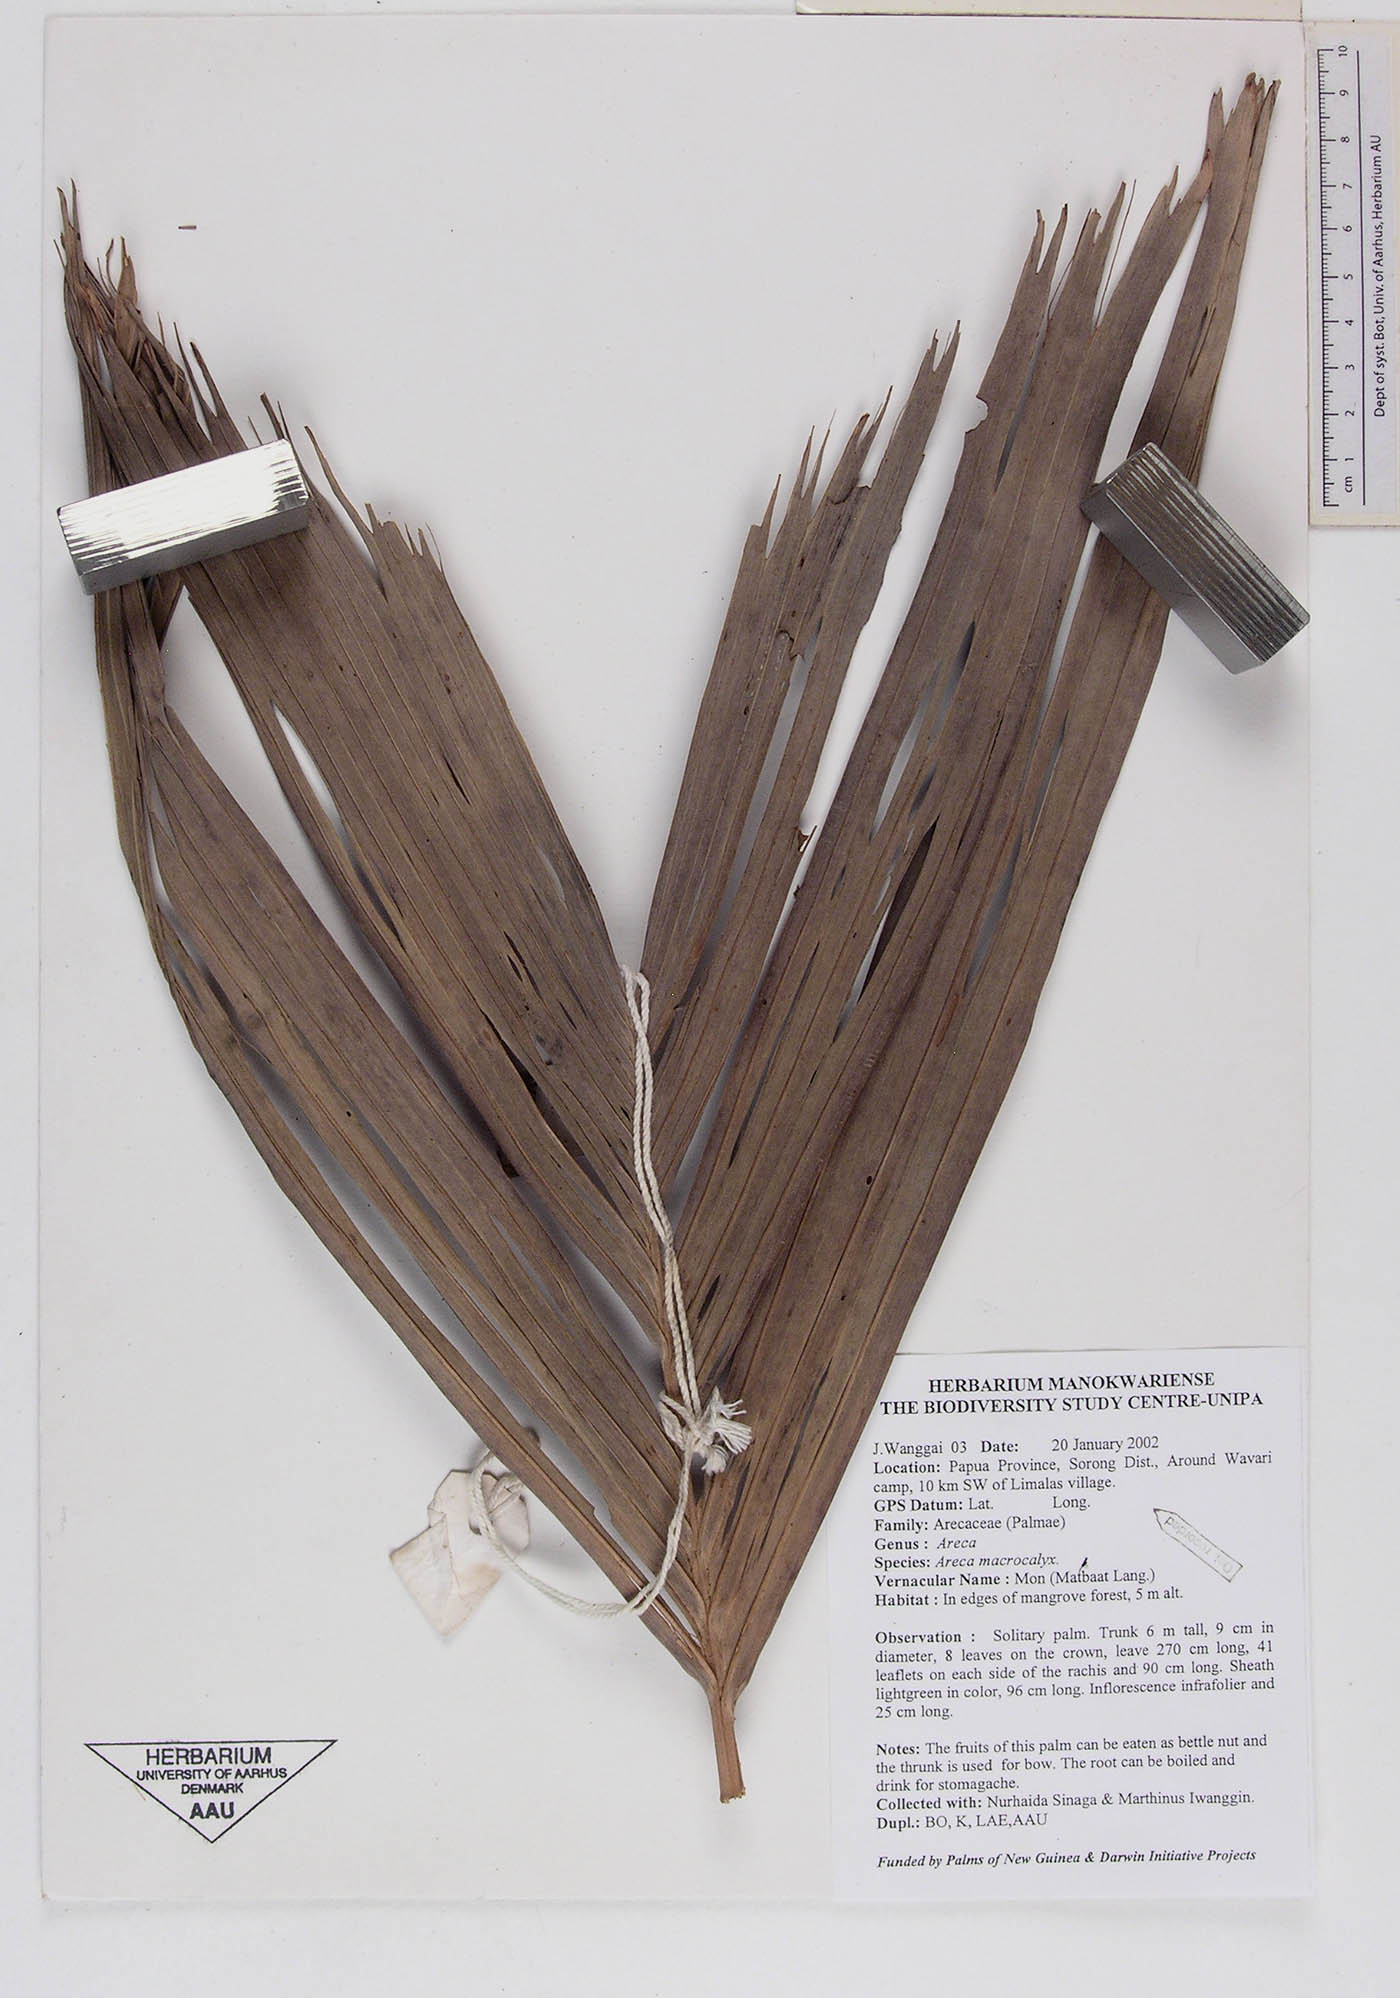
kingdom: Plantae
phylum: Tracheophyta
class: Liliopsida
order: Arecales
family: Arecaceae
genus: Areca
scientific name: Areca macrocalyx
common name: Highland betel-nut palm
